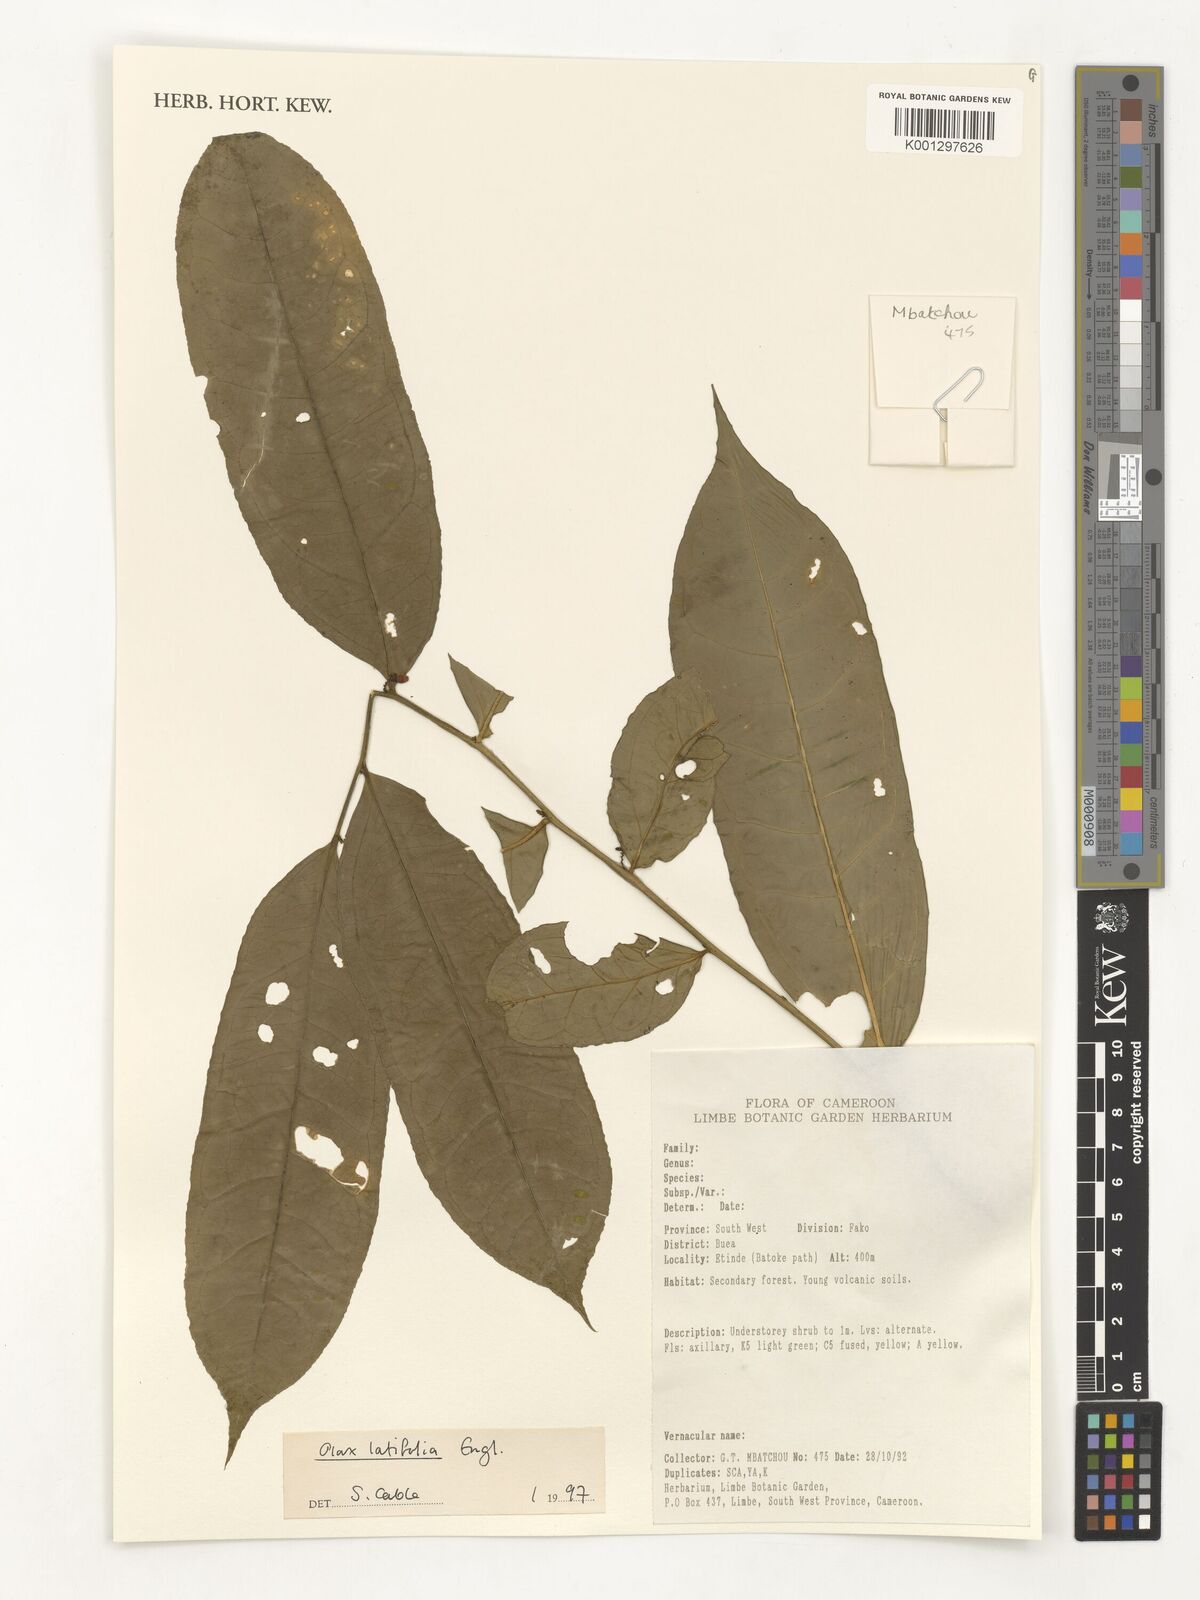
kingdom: Plantae
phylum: Tracheophyta
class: Magnoliopsida
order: Santalales
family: Olacaceae
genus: Olax
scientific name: Olax latifolia
